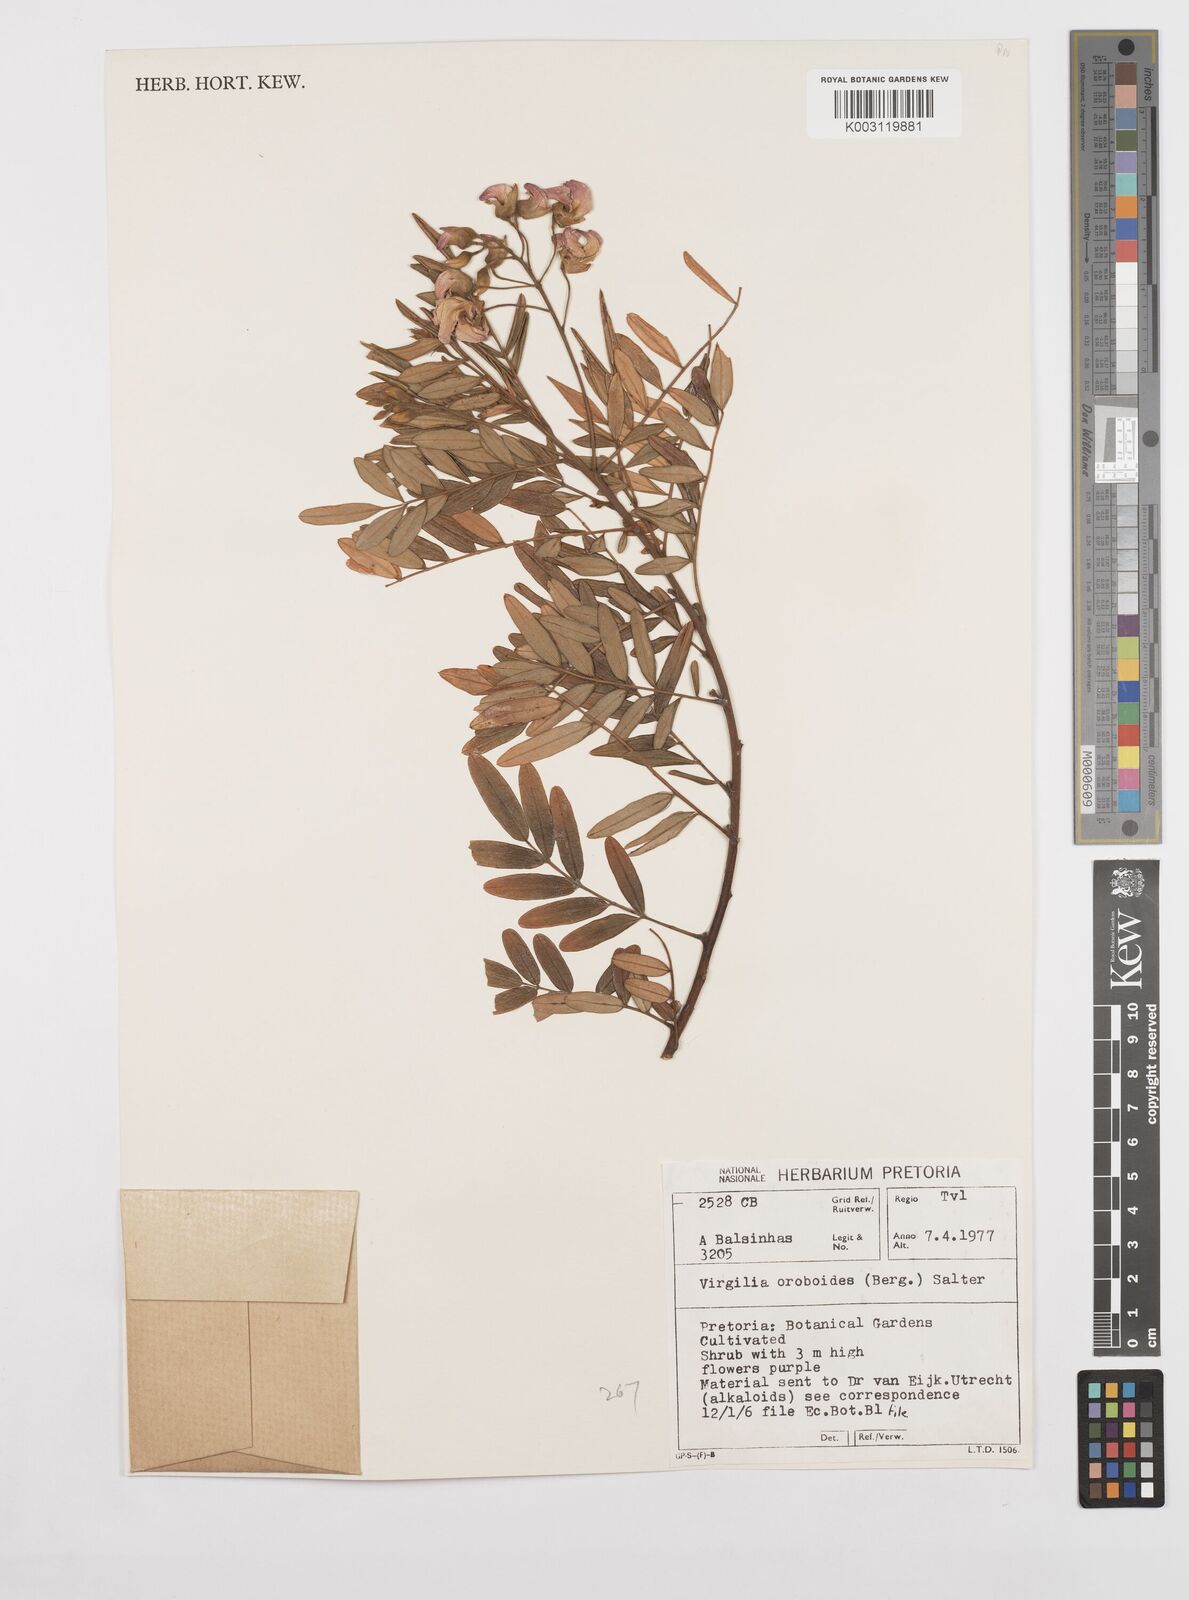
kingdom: Plantae
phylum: Tracheophyta
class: Magnoliopsida
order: Fabales
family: Fabaceae
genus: Virgilia
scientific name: Virgilia oroboides
